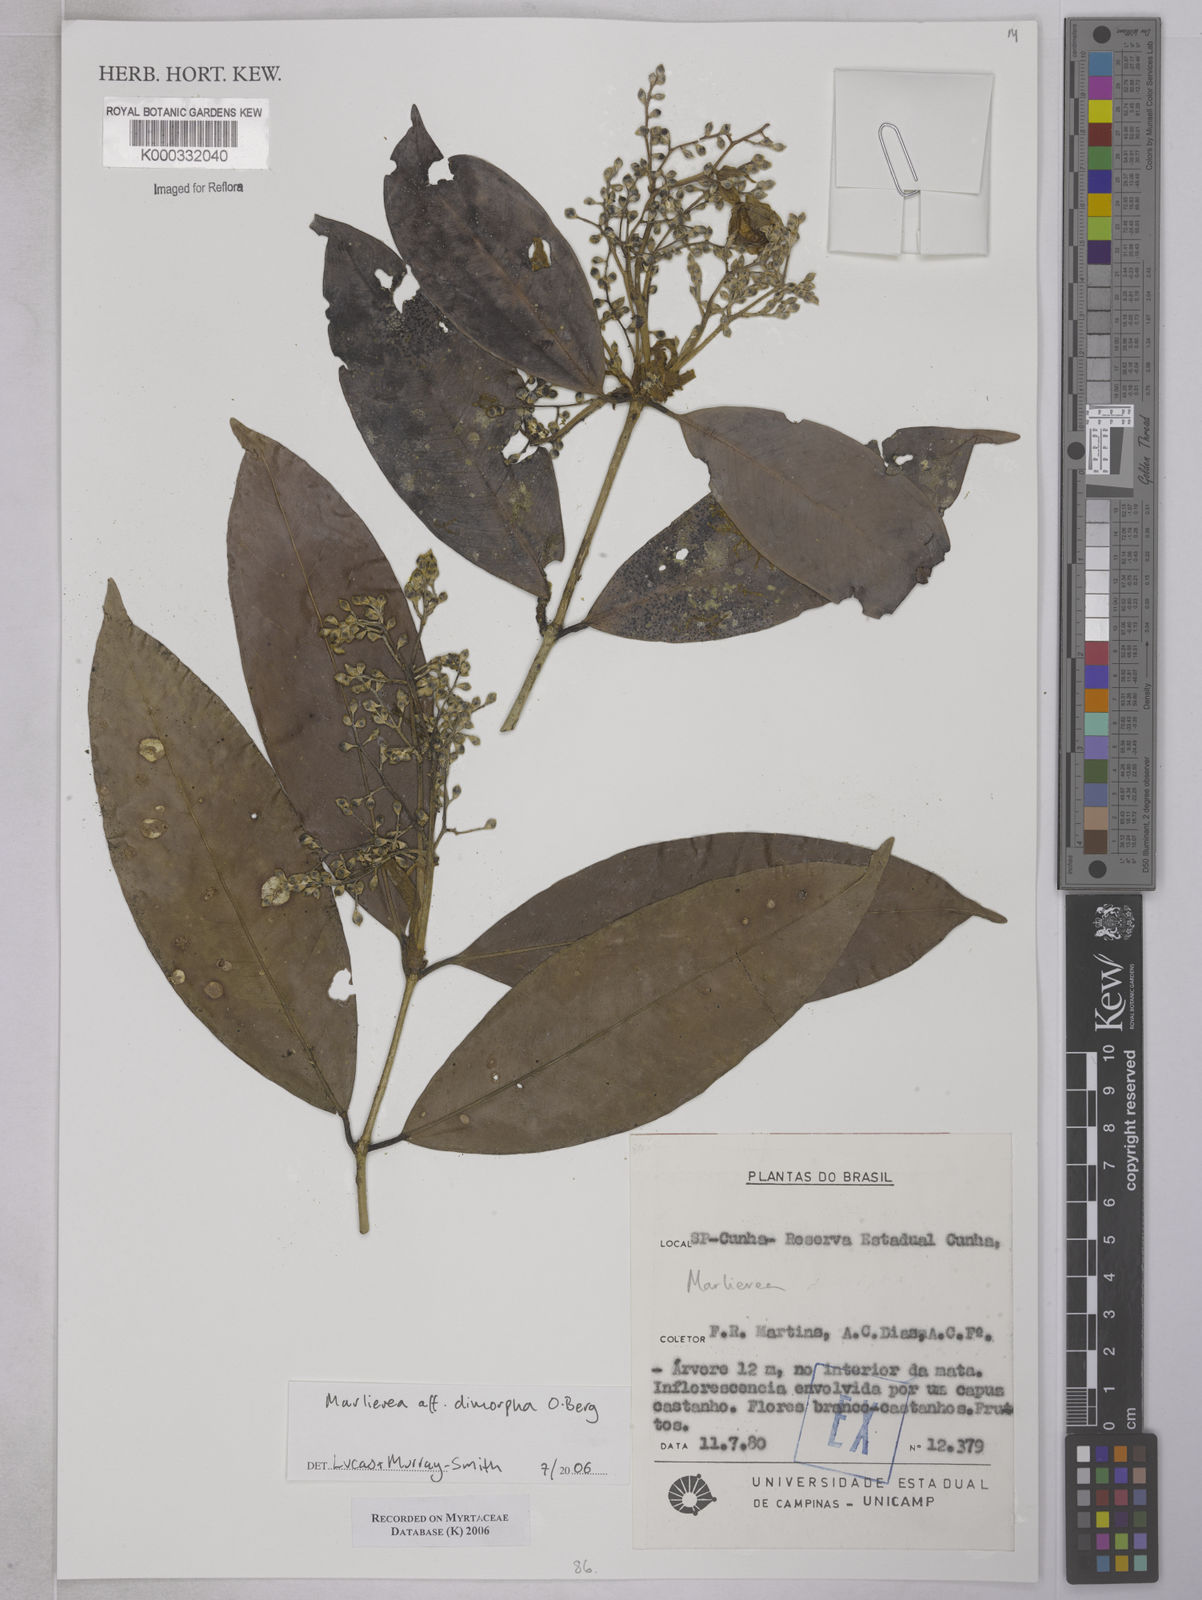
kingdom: Plantae
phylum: Tracheophyta
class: Magnoliopsida
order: Myrtales
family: Myrtaceae
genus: Myrcia
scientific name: Myrcia neodimorpha
